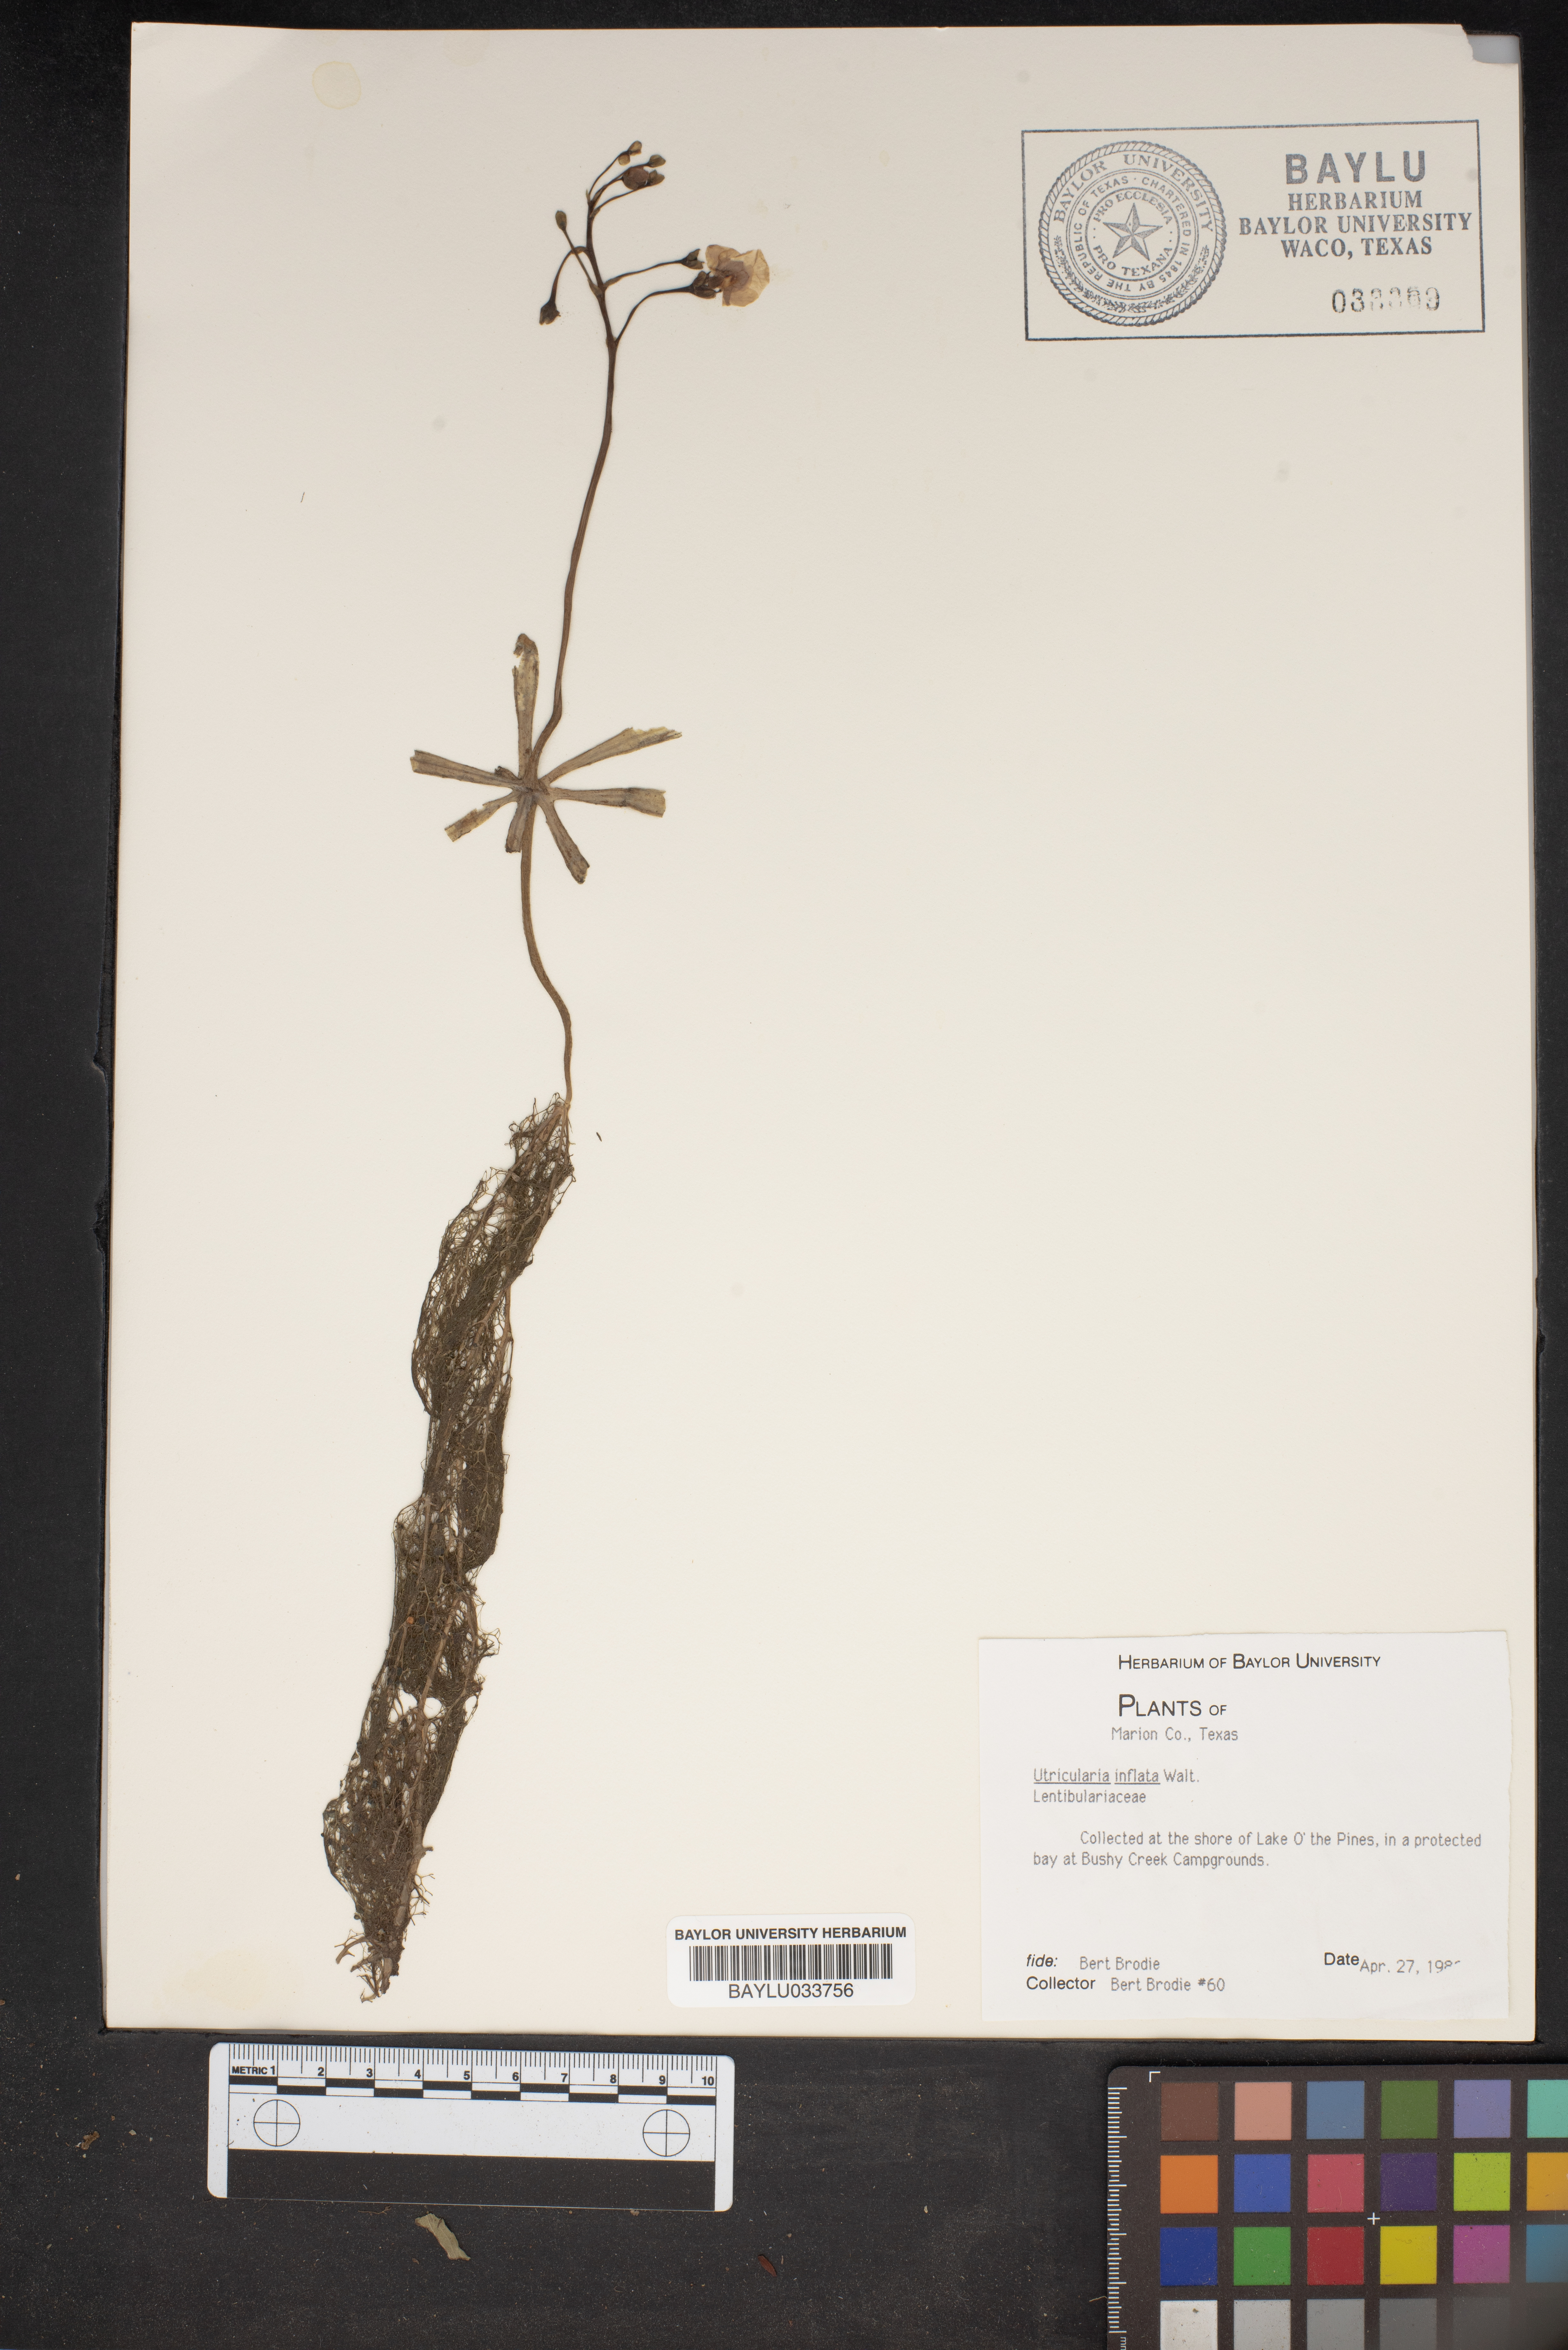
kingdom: Plantae
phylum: Tracheophyta
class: Magnoliopsida
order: Lamiales
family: Lentibulariaceae
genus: Utricularia
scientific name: Utricularia inflata
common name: Floating bladderwort
